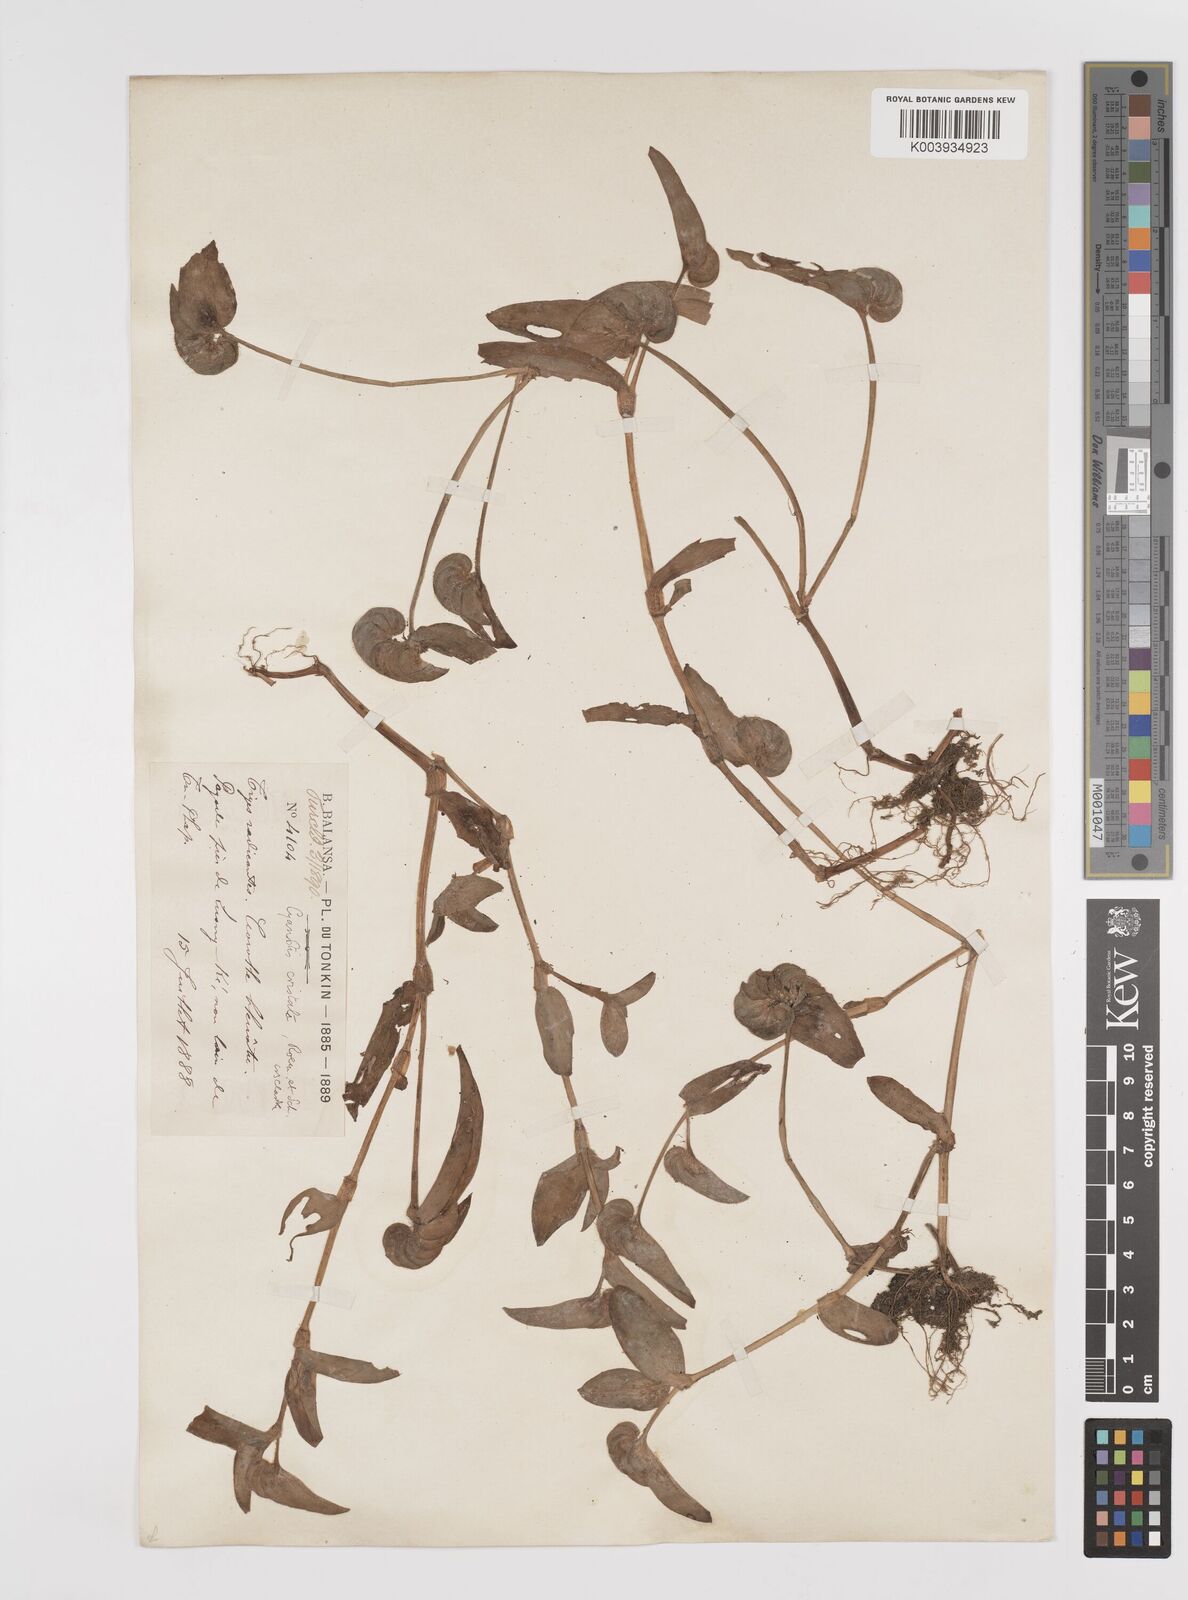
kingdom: Plantae
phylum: Tracheophyta
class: Liliopsida
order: Commelinales
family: Commelinaceae
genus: Cyanotis
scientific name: Cyanotis cristata
